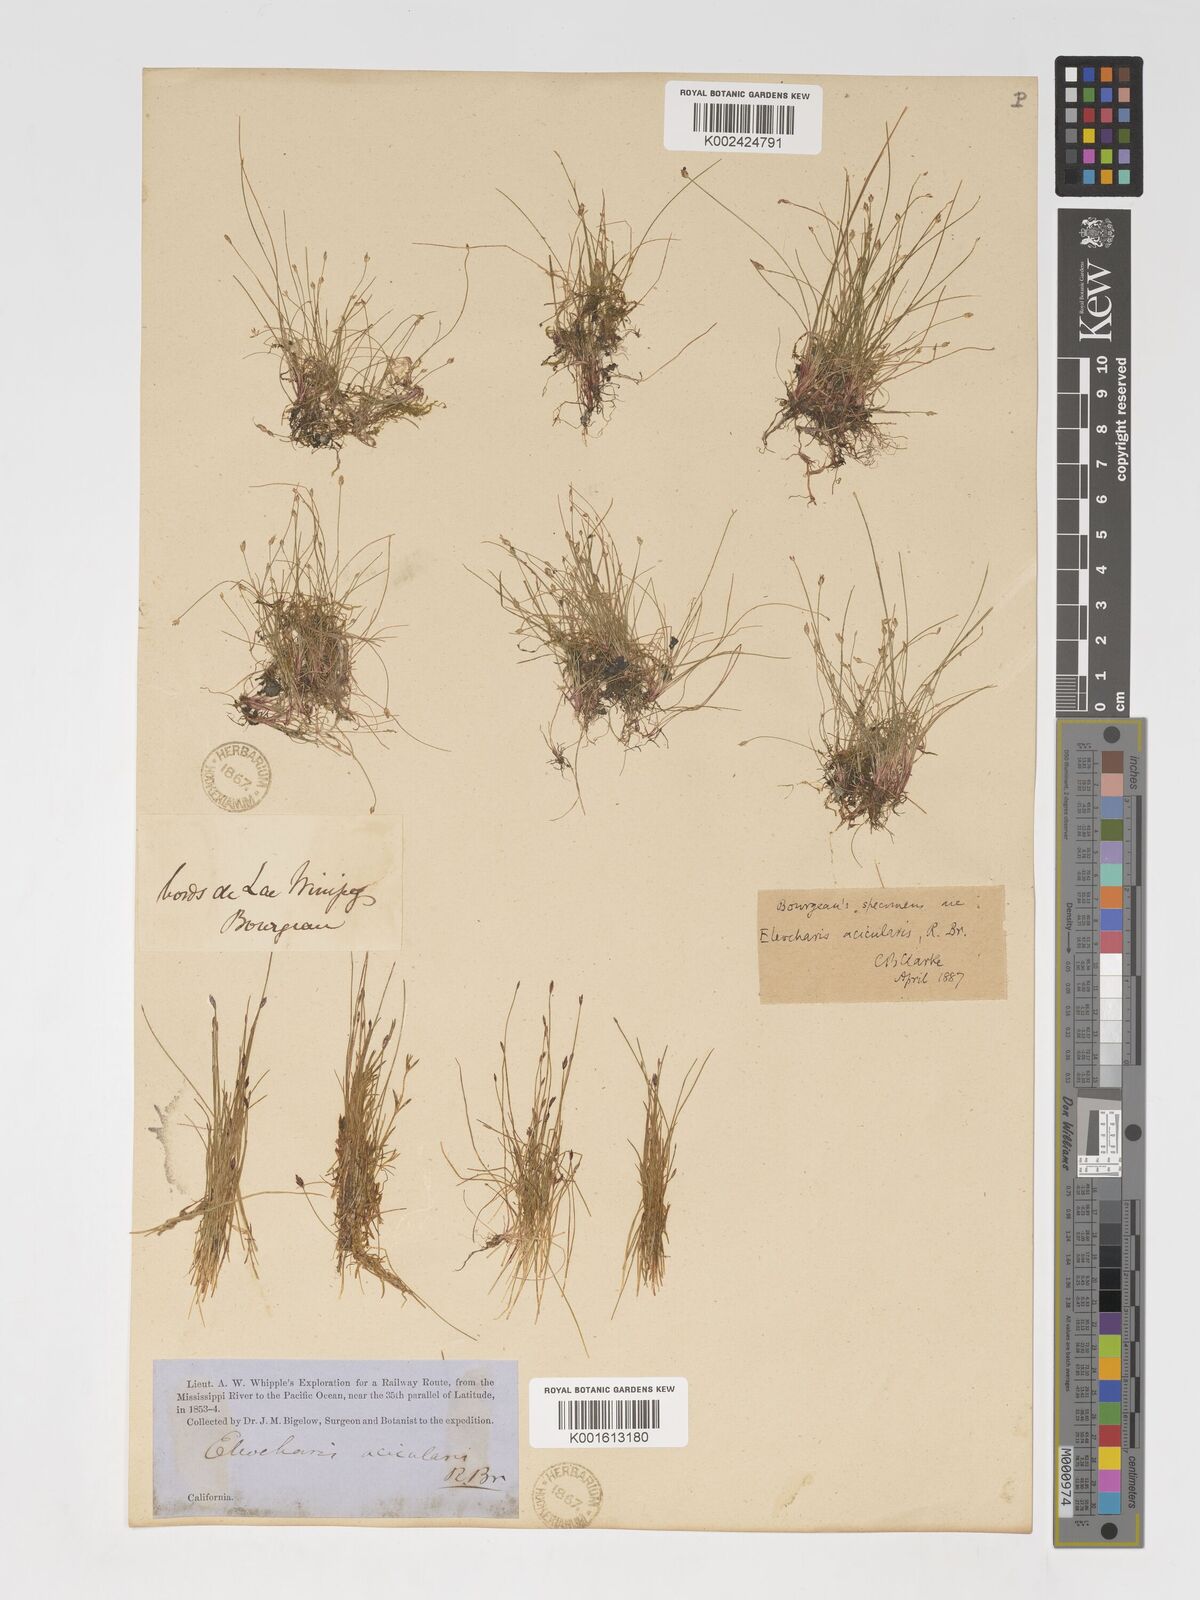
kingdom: Plantae
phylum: Tracheophyta
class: Liliopsida
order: Poales
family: Cyperaceae
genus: Eleocharis
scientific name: Eleocharis acicularis
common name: Needle spike-rush
